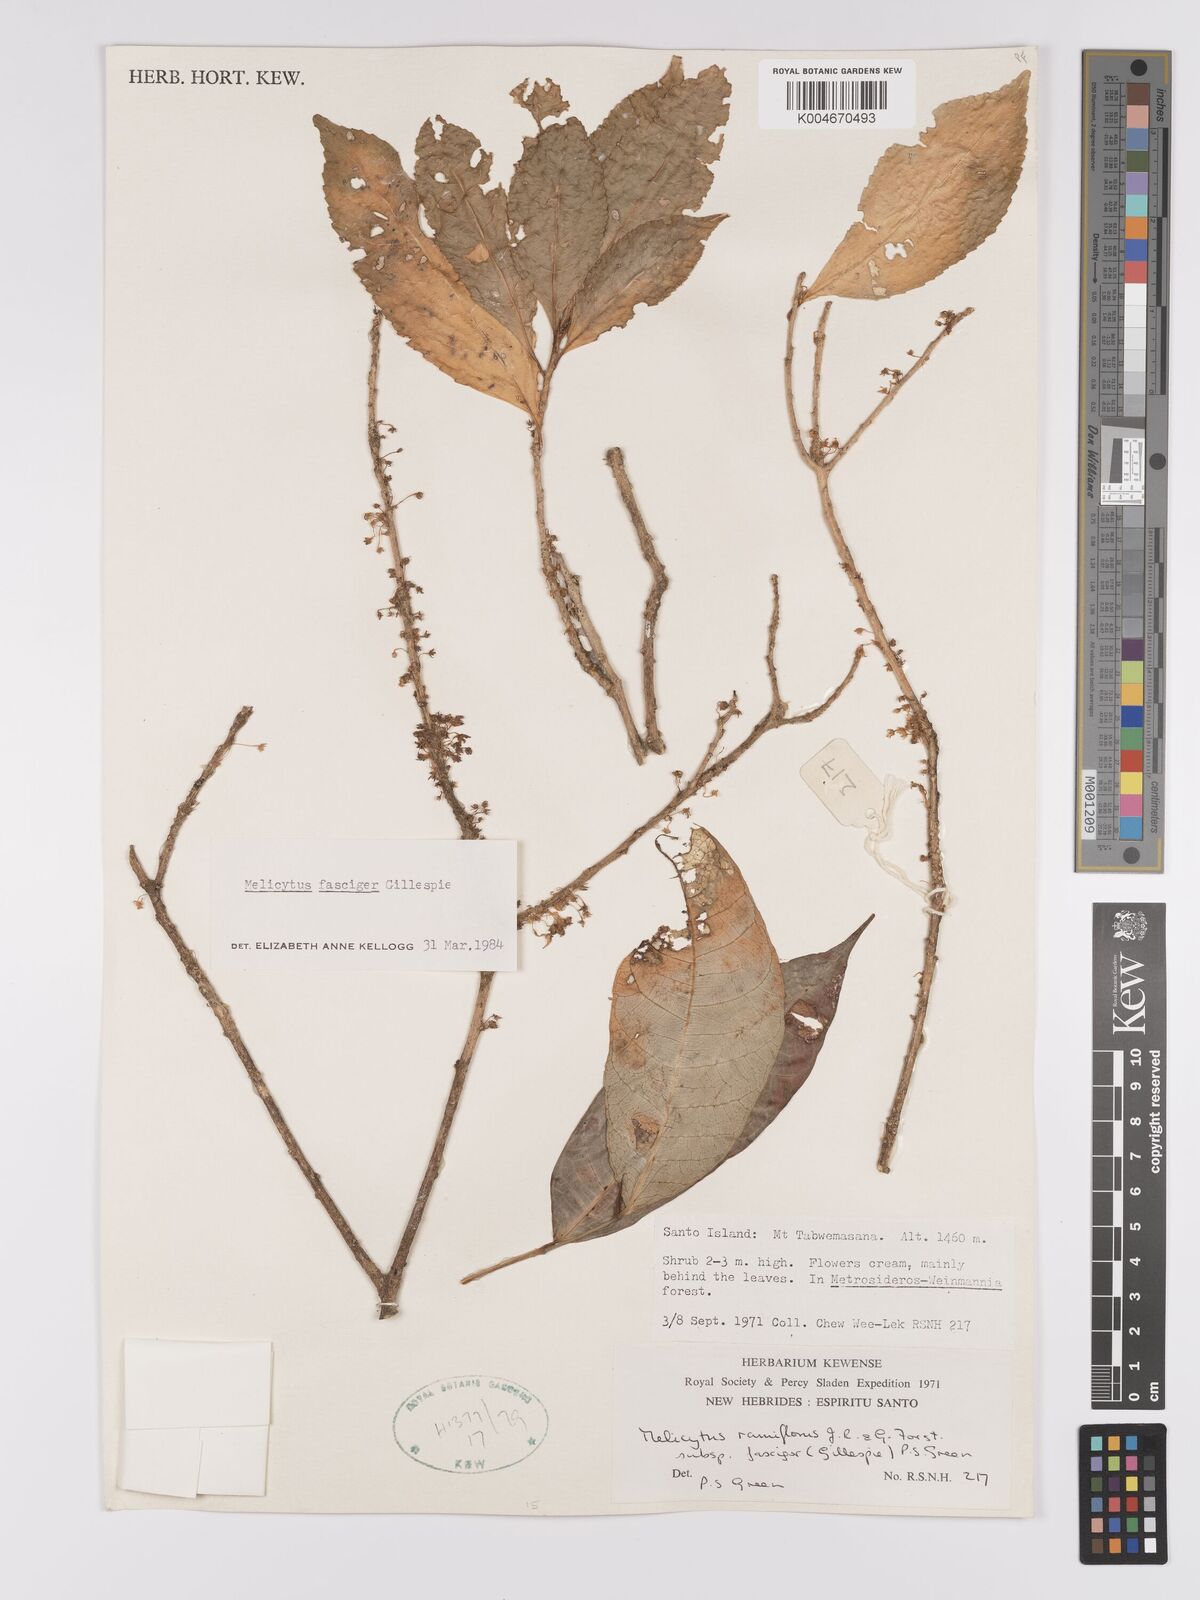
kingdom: Plantae
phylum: Tracheophyta
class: Magnoliopsida
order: Malpighiales
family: Violaceae
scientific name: Violaceae
